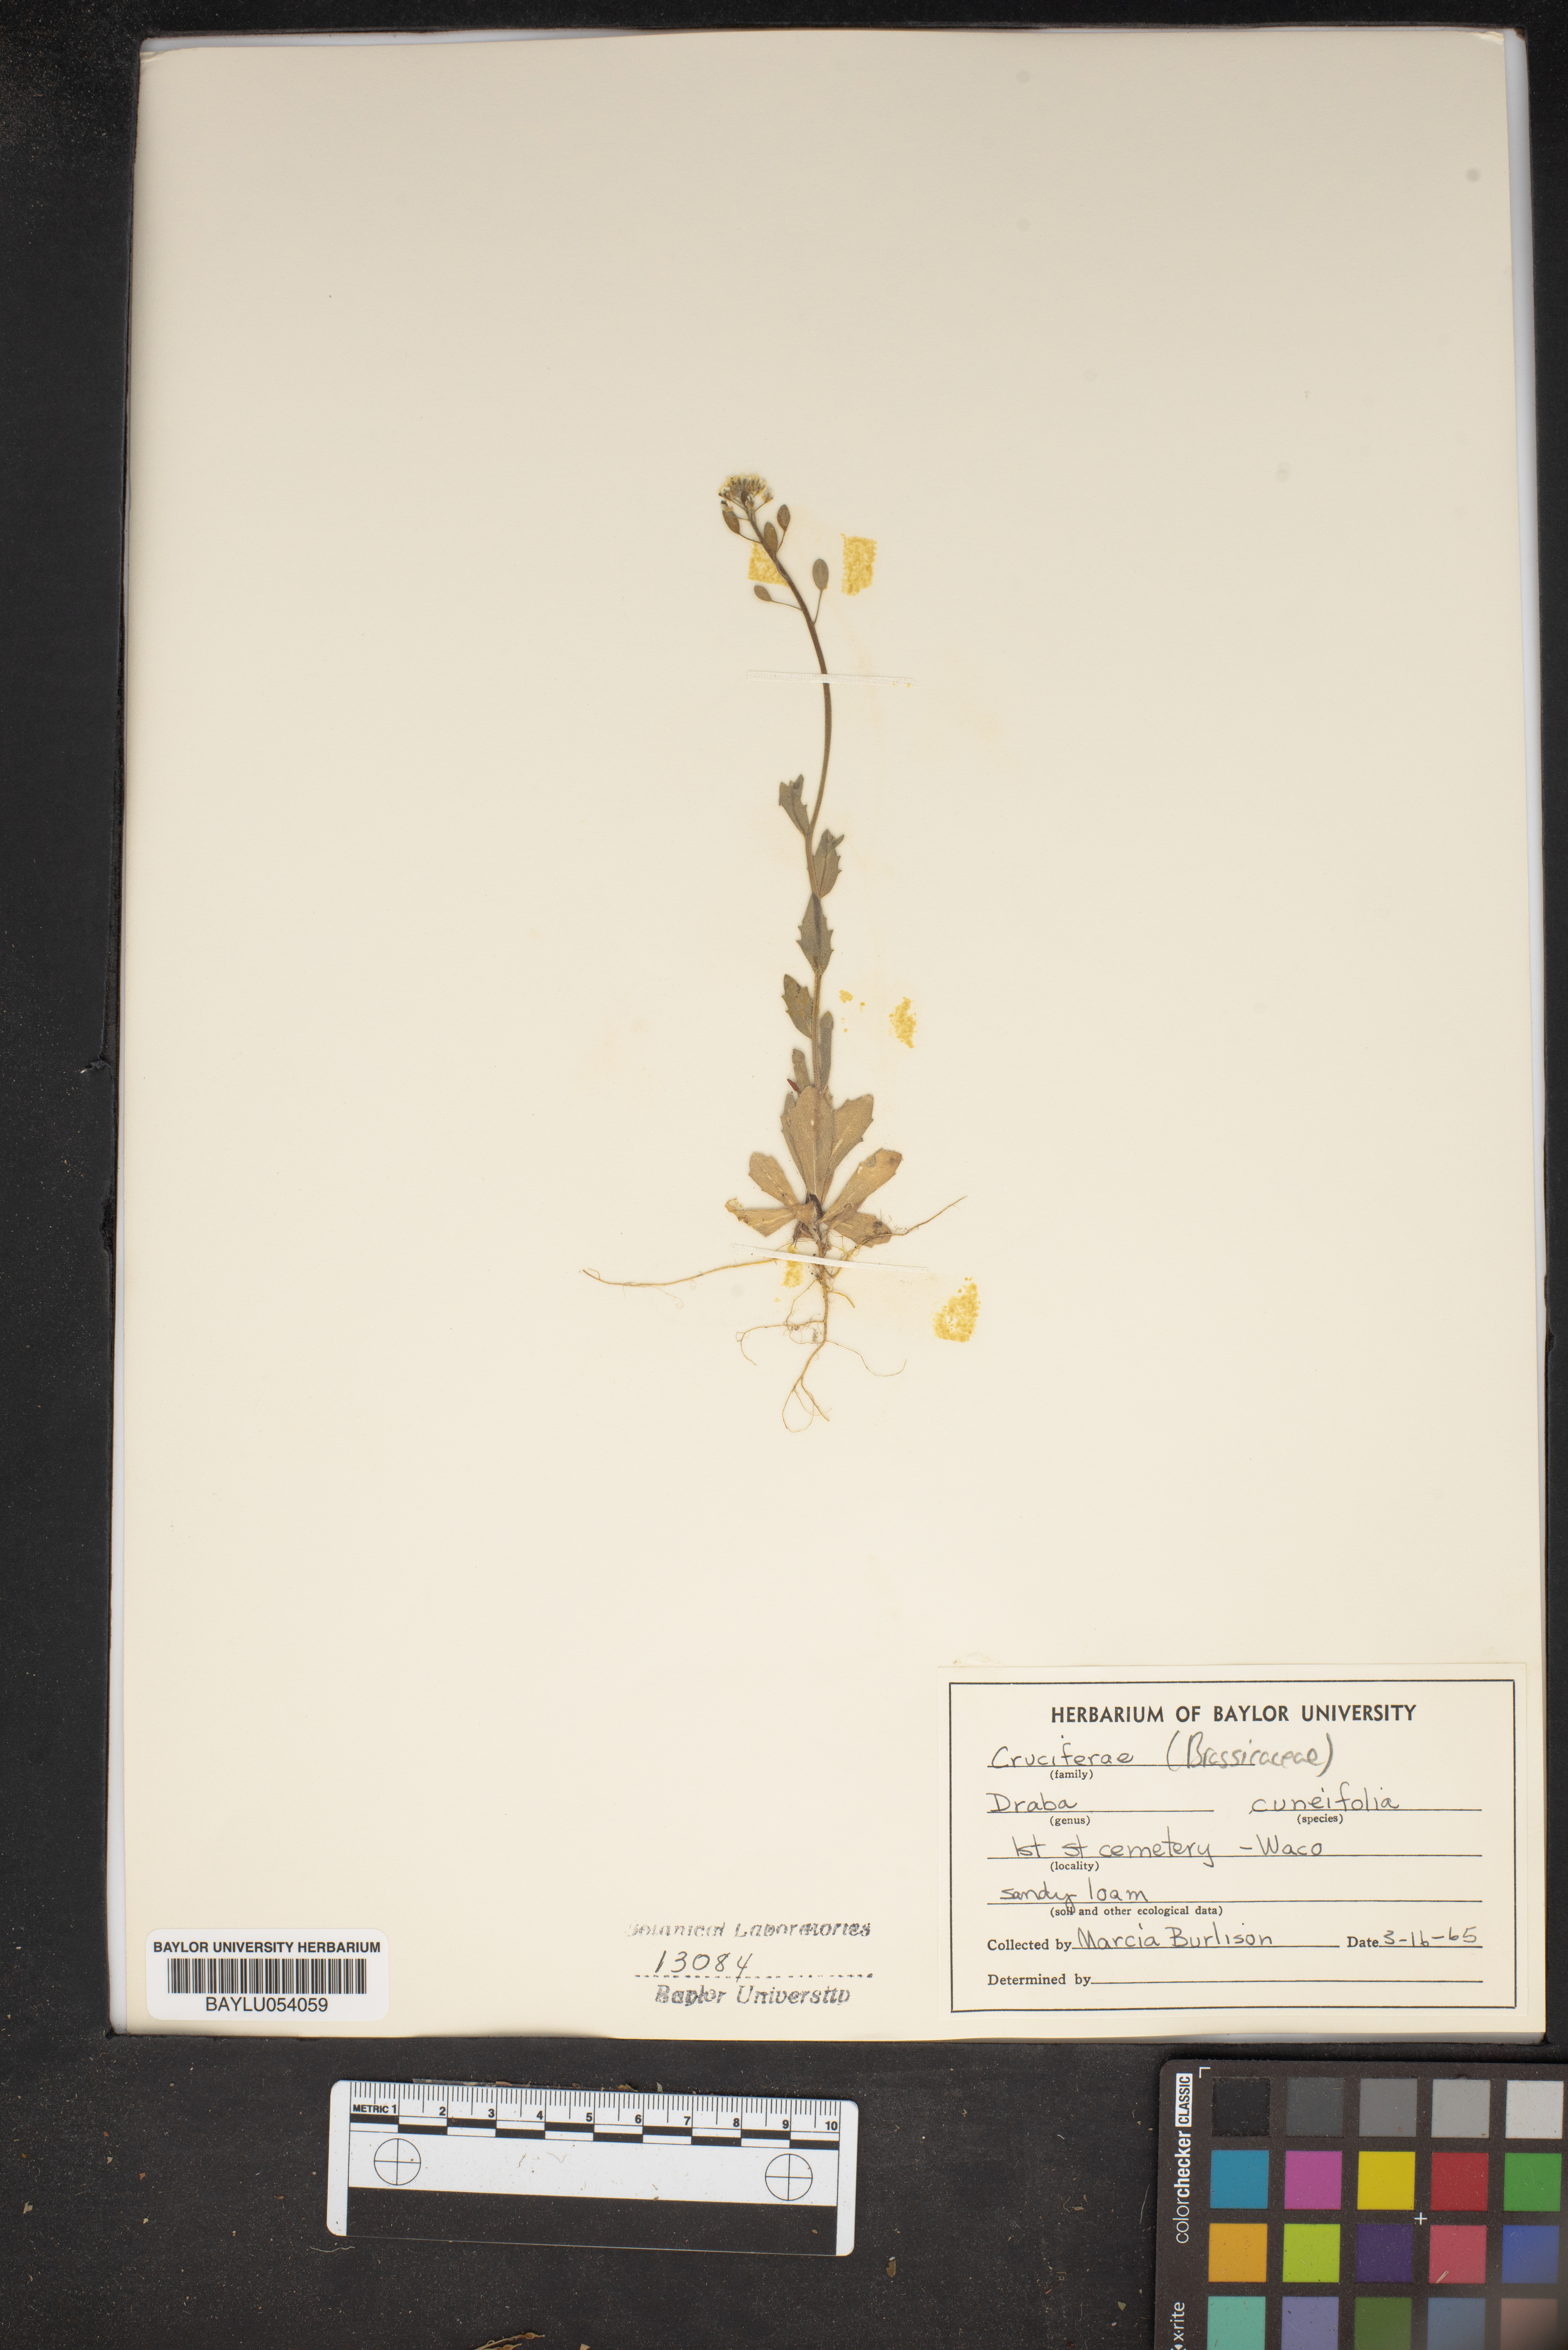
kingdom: Plantae
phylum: Tracheophyta
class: Magnoliopsida
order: Brassicales
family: Brassicaceae
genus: Tomostima
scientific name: Tomostima cuneifolia
